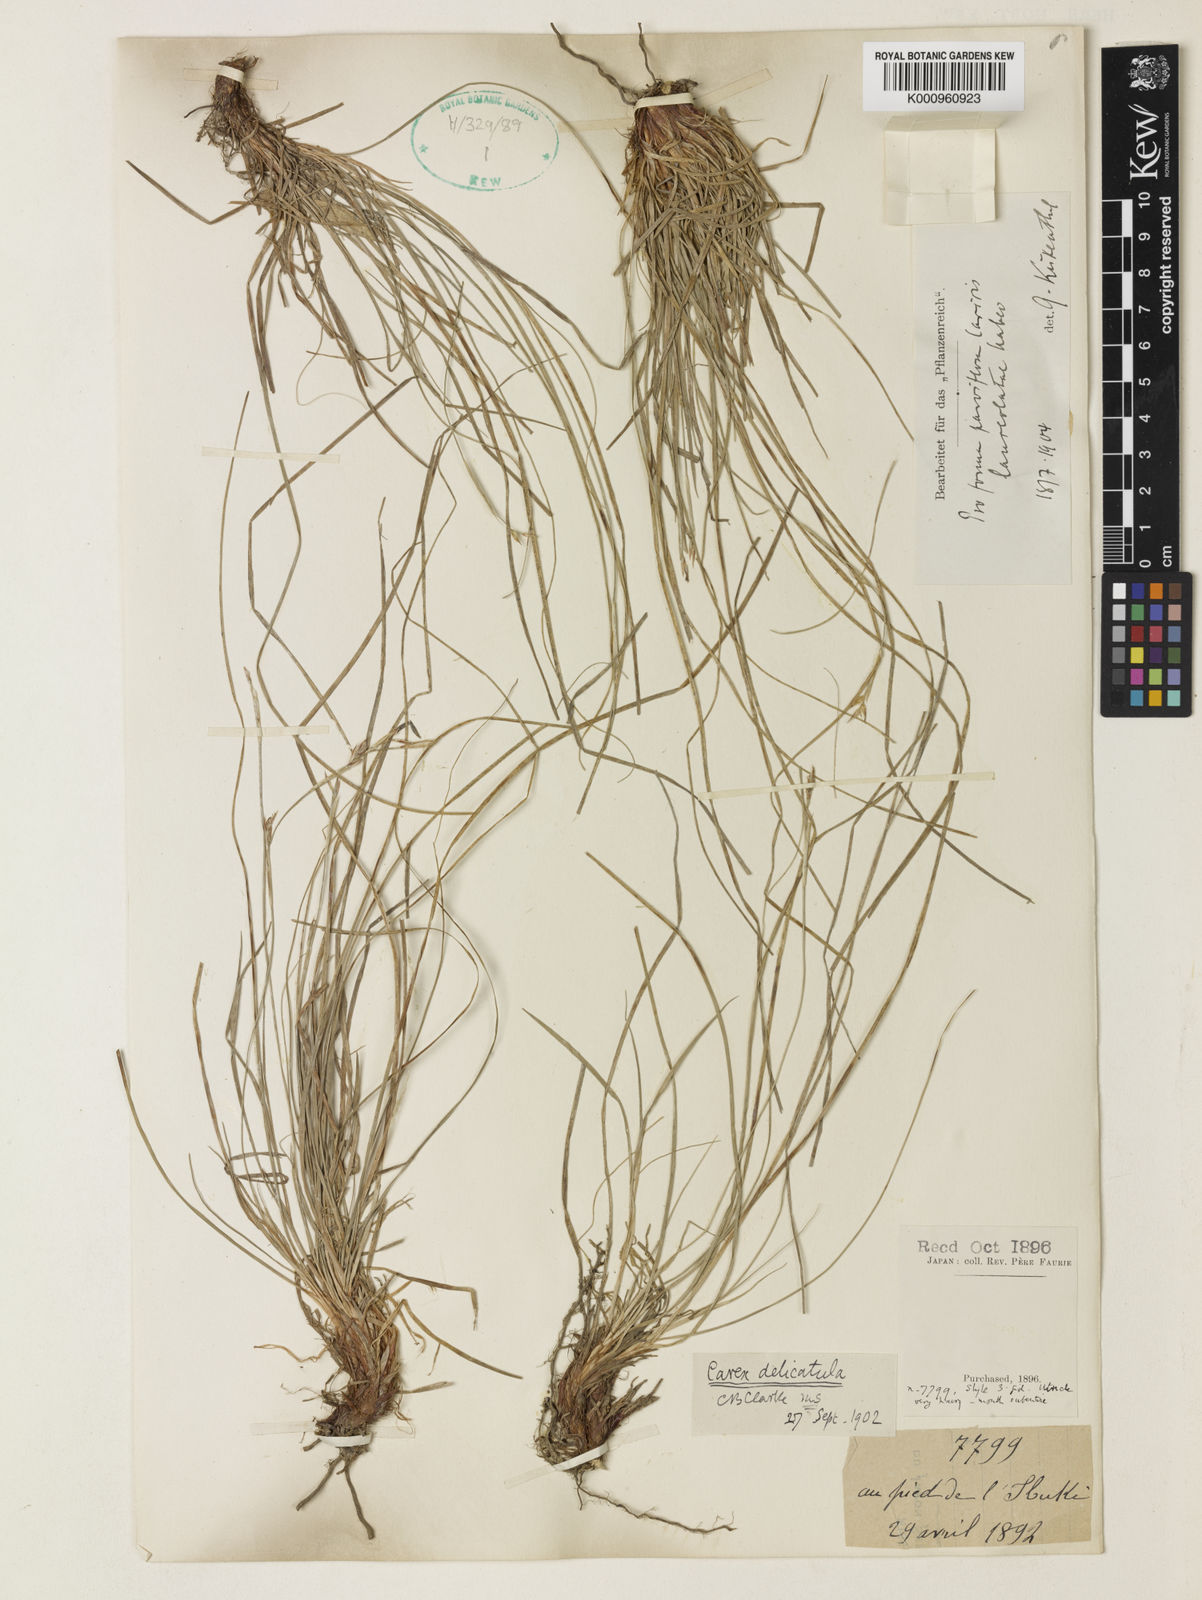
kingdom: Plantae
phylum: Tracheophyta
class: Liliopsida
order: Poales
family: Cyperaceae
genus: Carex
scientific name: Carex lanceolata
